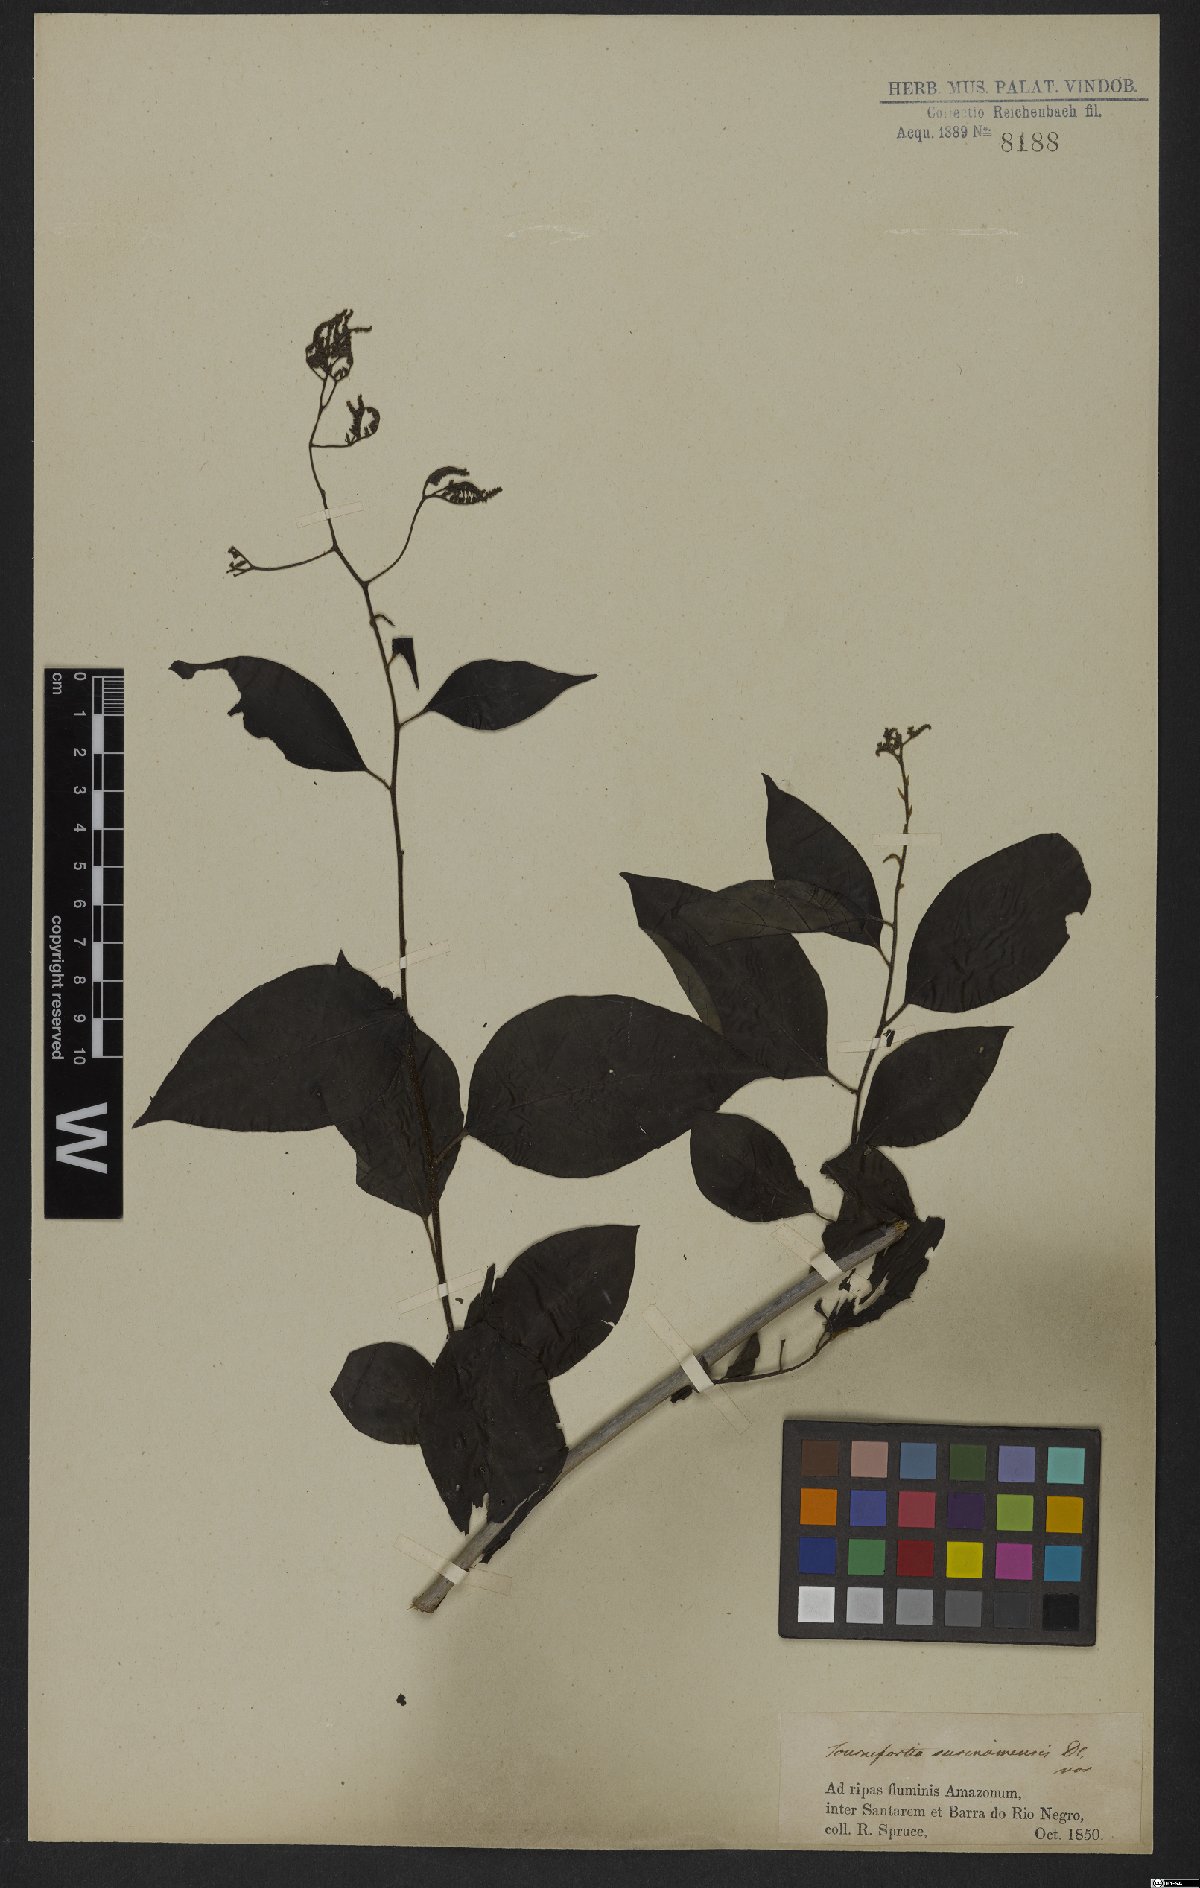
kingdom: Plantae
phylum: Tracheophyta
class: Magnoliopsida
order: Boraginales
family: Heliotropiaceae
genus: Myriopus
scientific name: Myriopus maculatus
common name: Laurel-leaf soldierbush
